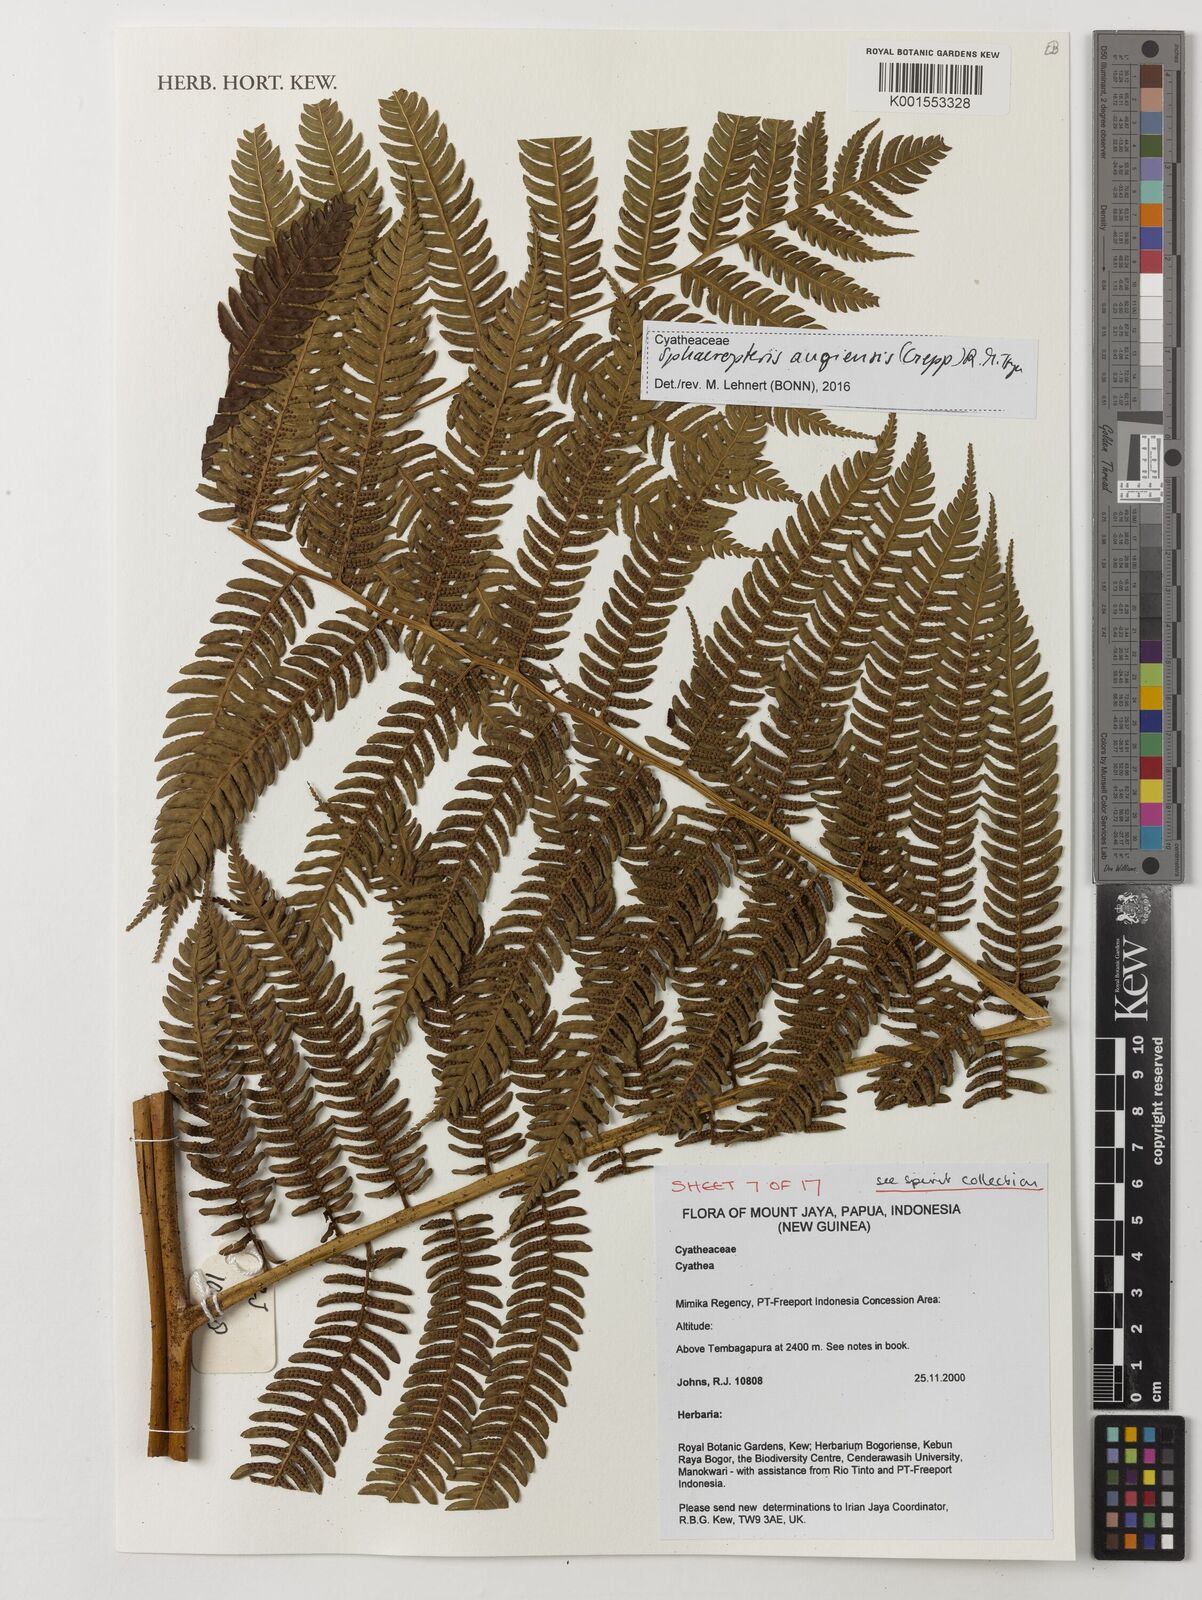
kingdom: Plantae
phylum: Tracheophyta
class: Polypodiopsida
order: Cyatheales
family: Cyatheaceae
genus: Sphaeropteris
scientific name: Sphaeropteris
